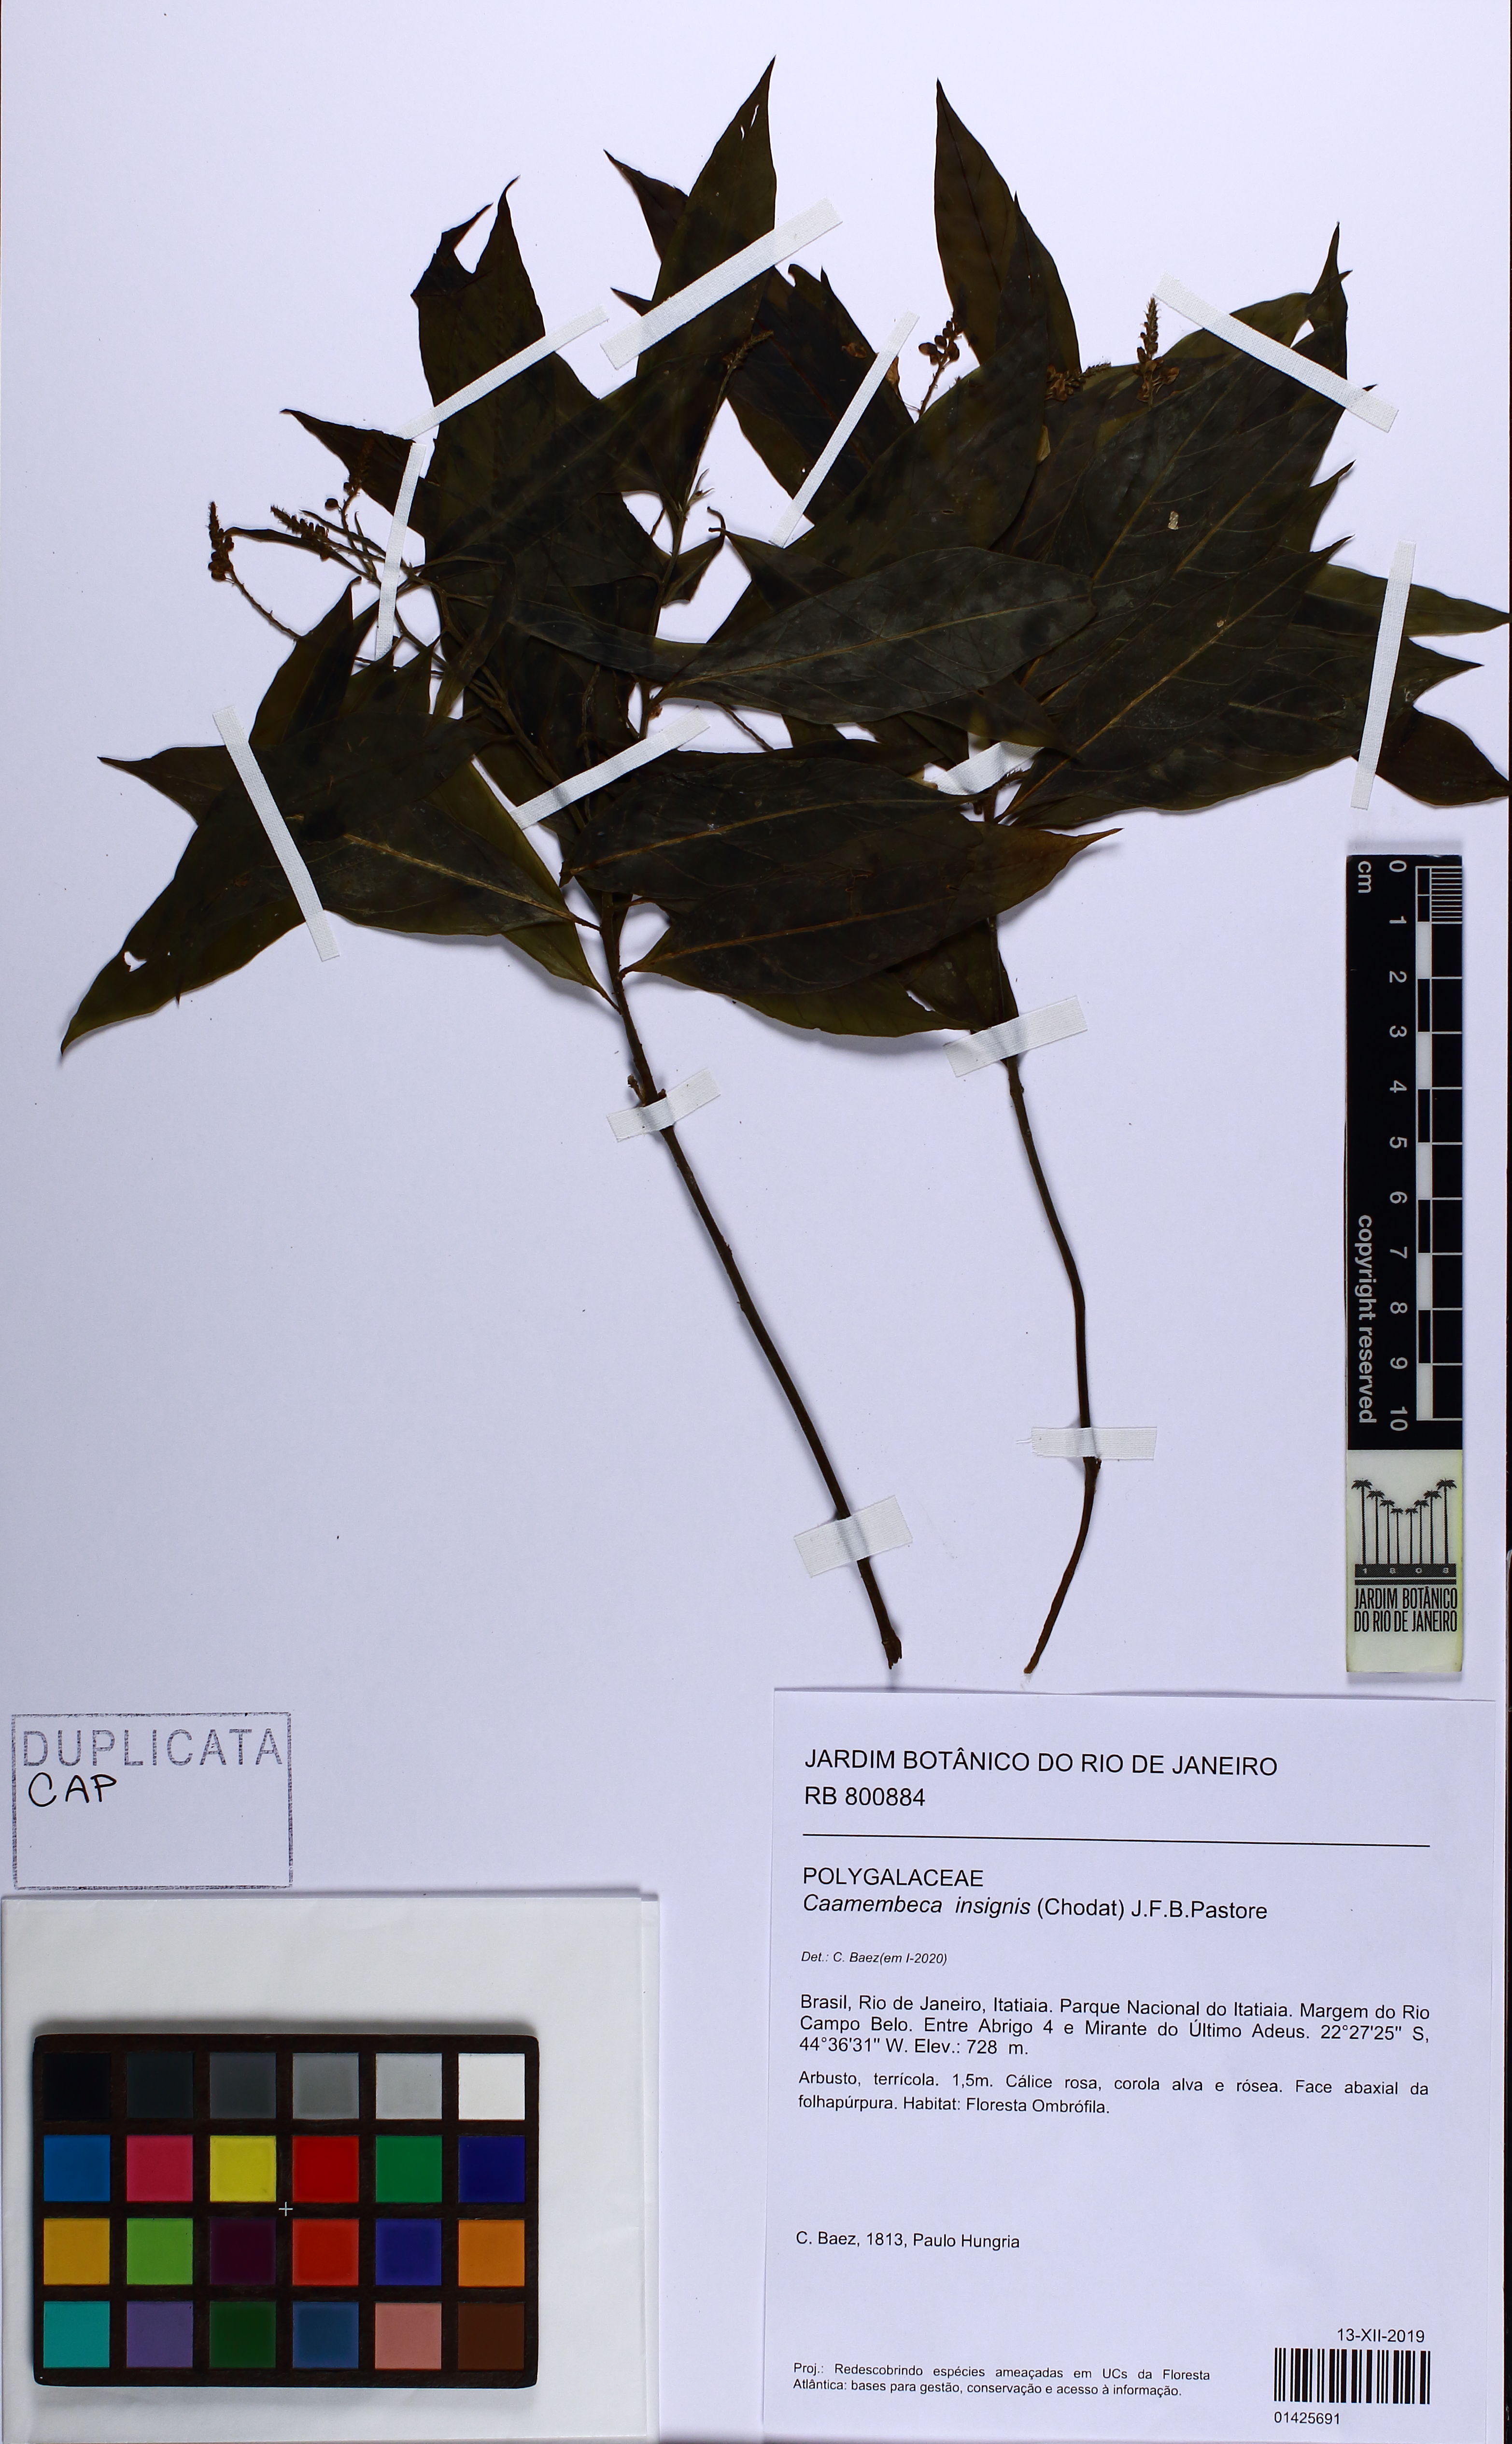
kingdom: Plantae
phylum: Tracheophyta
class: Magnoliopsida
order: Fabales
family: Polygalaceae
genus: Caamembeca
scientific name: Caamembeca insignis
